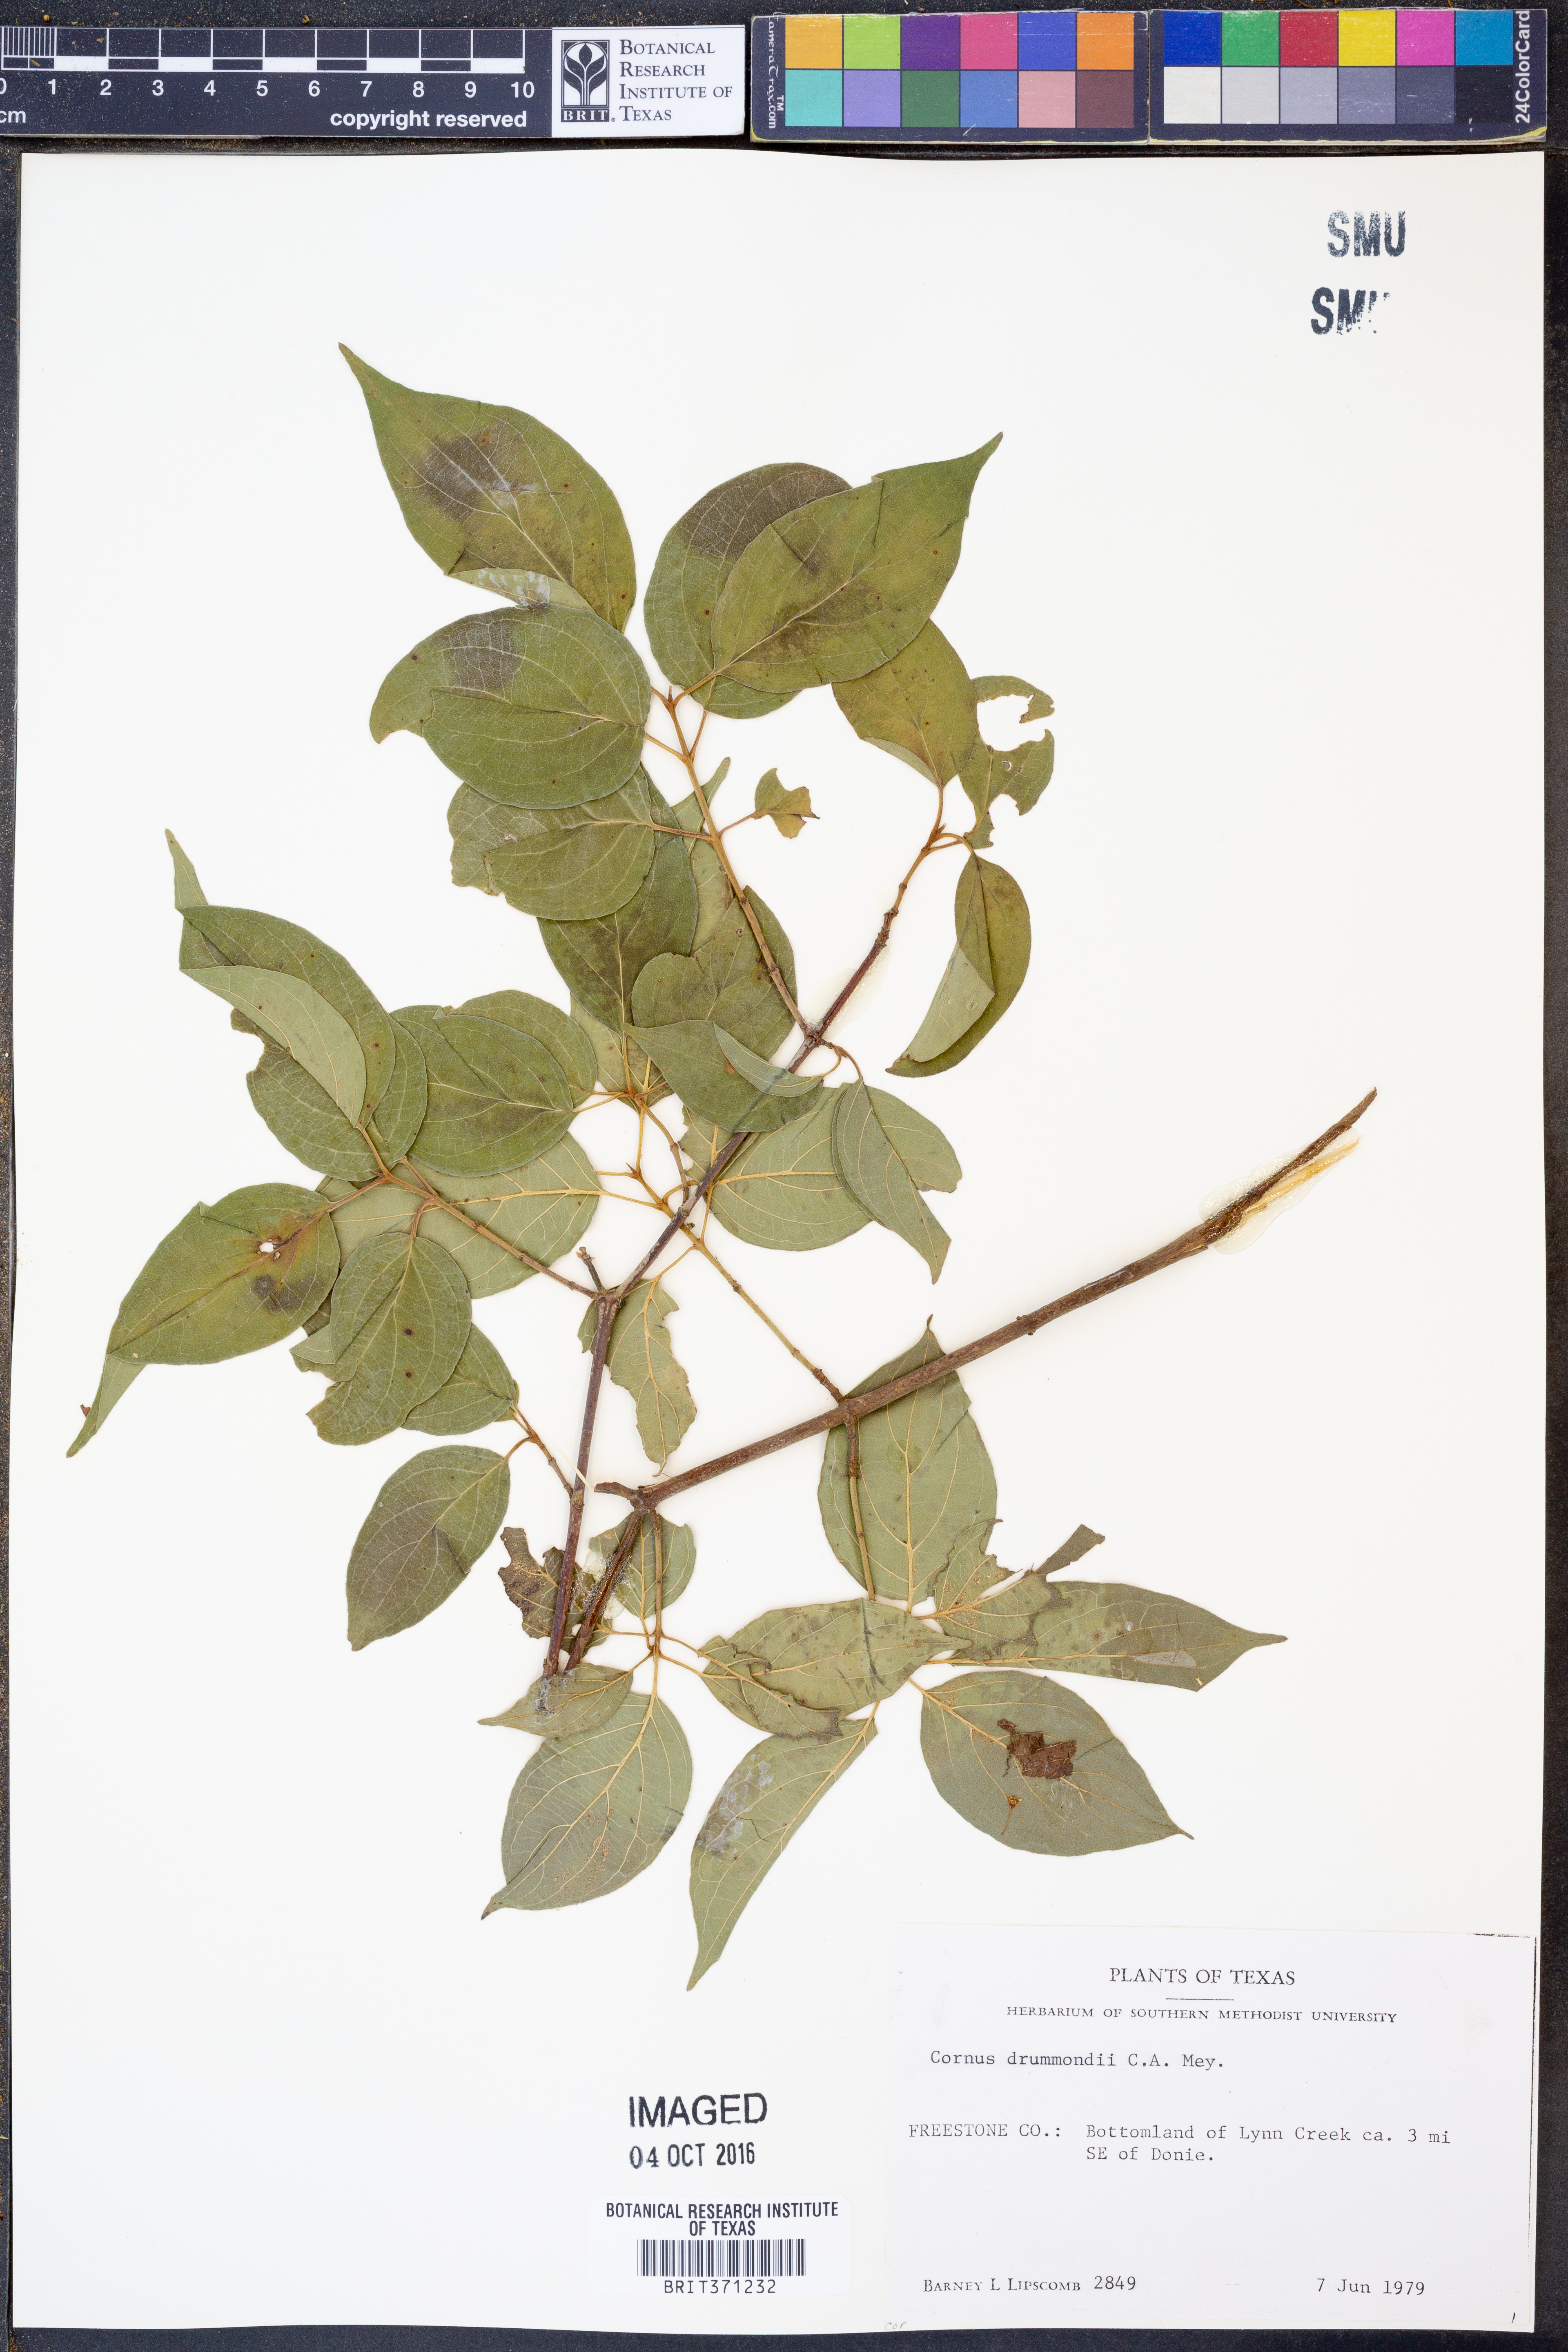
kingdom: Plantae
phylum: Tracheophyta
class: Magnoliopsida
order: Cornales
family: Cornaceae
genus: Cornus
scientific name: Cornus drummondii
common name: Rough-leaf dogwood
